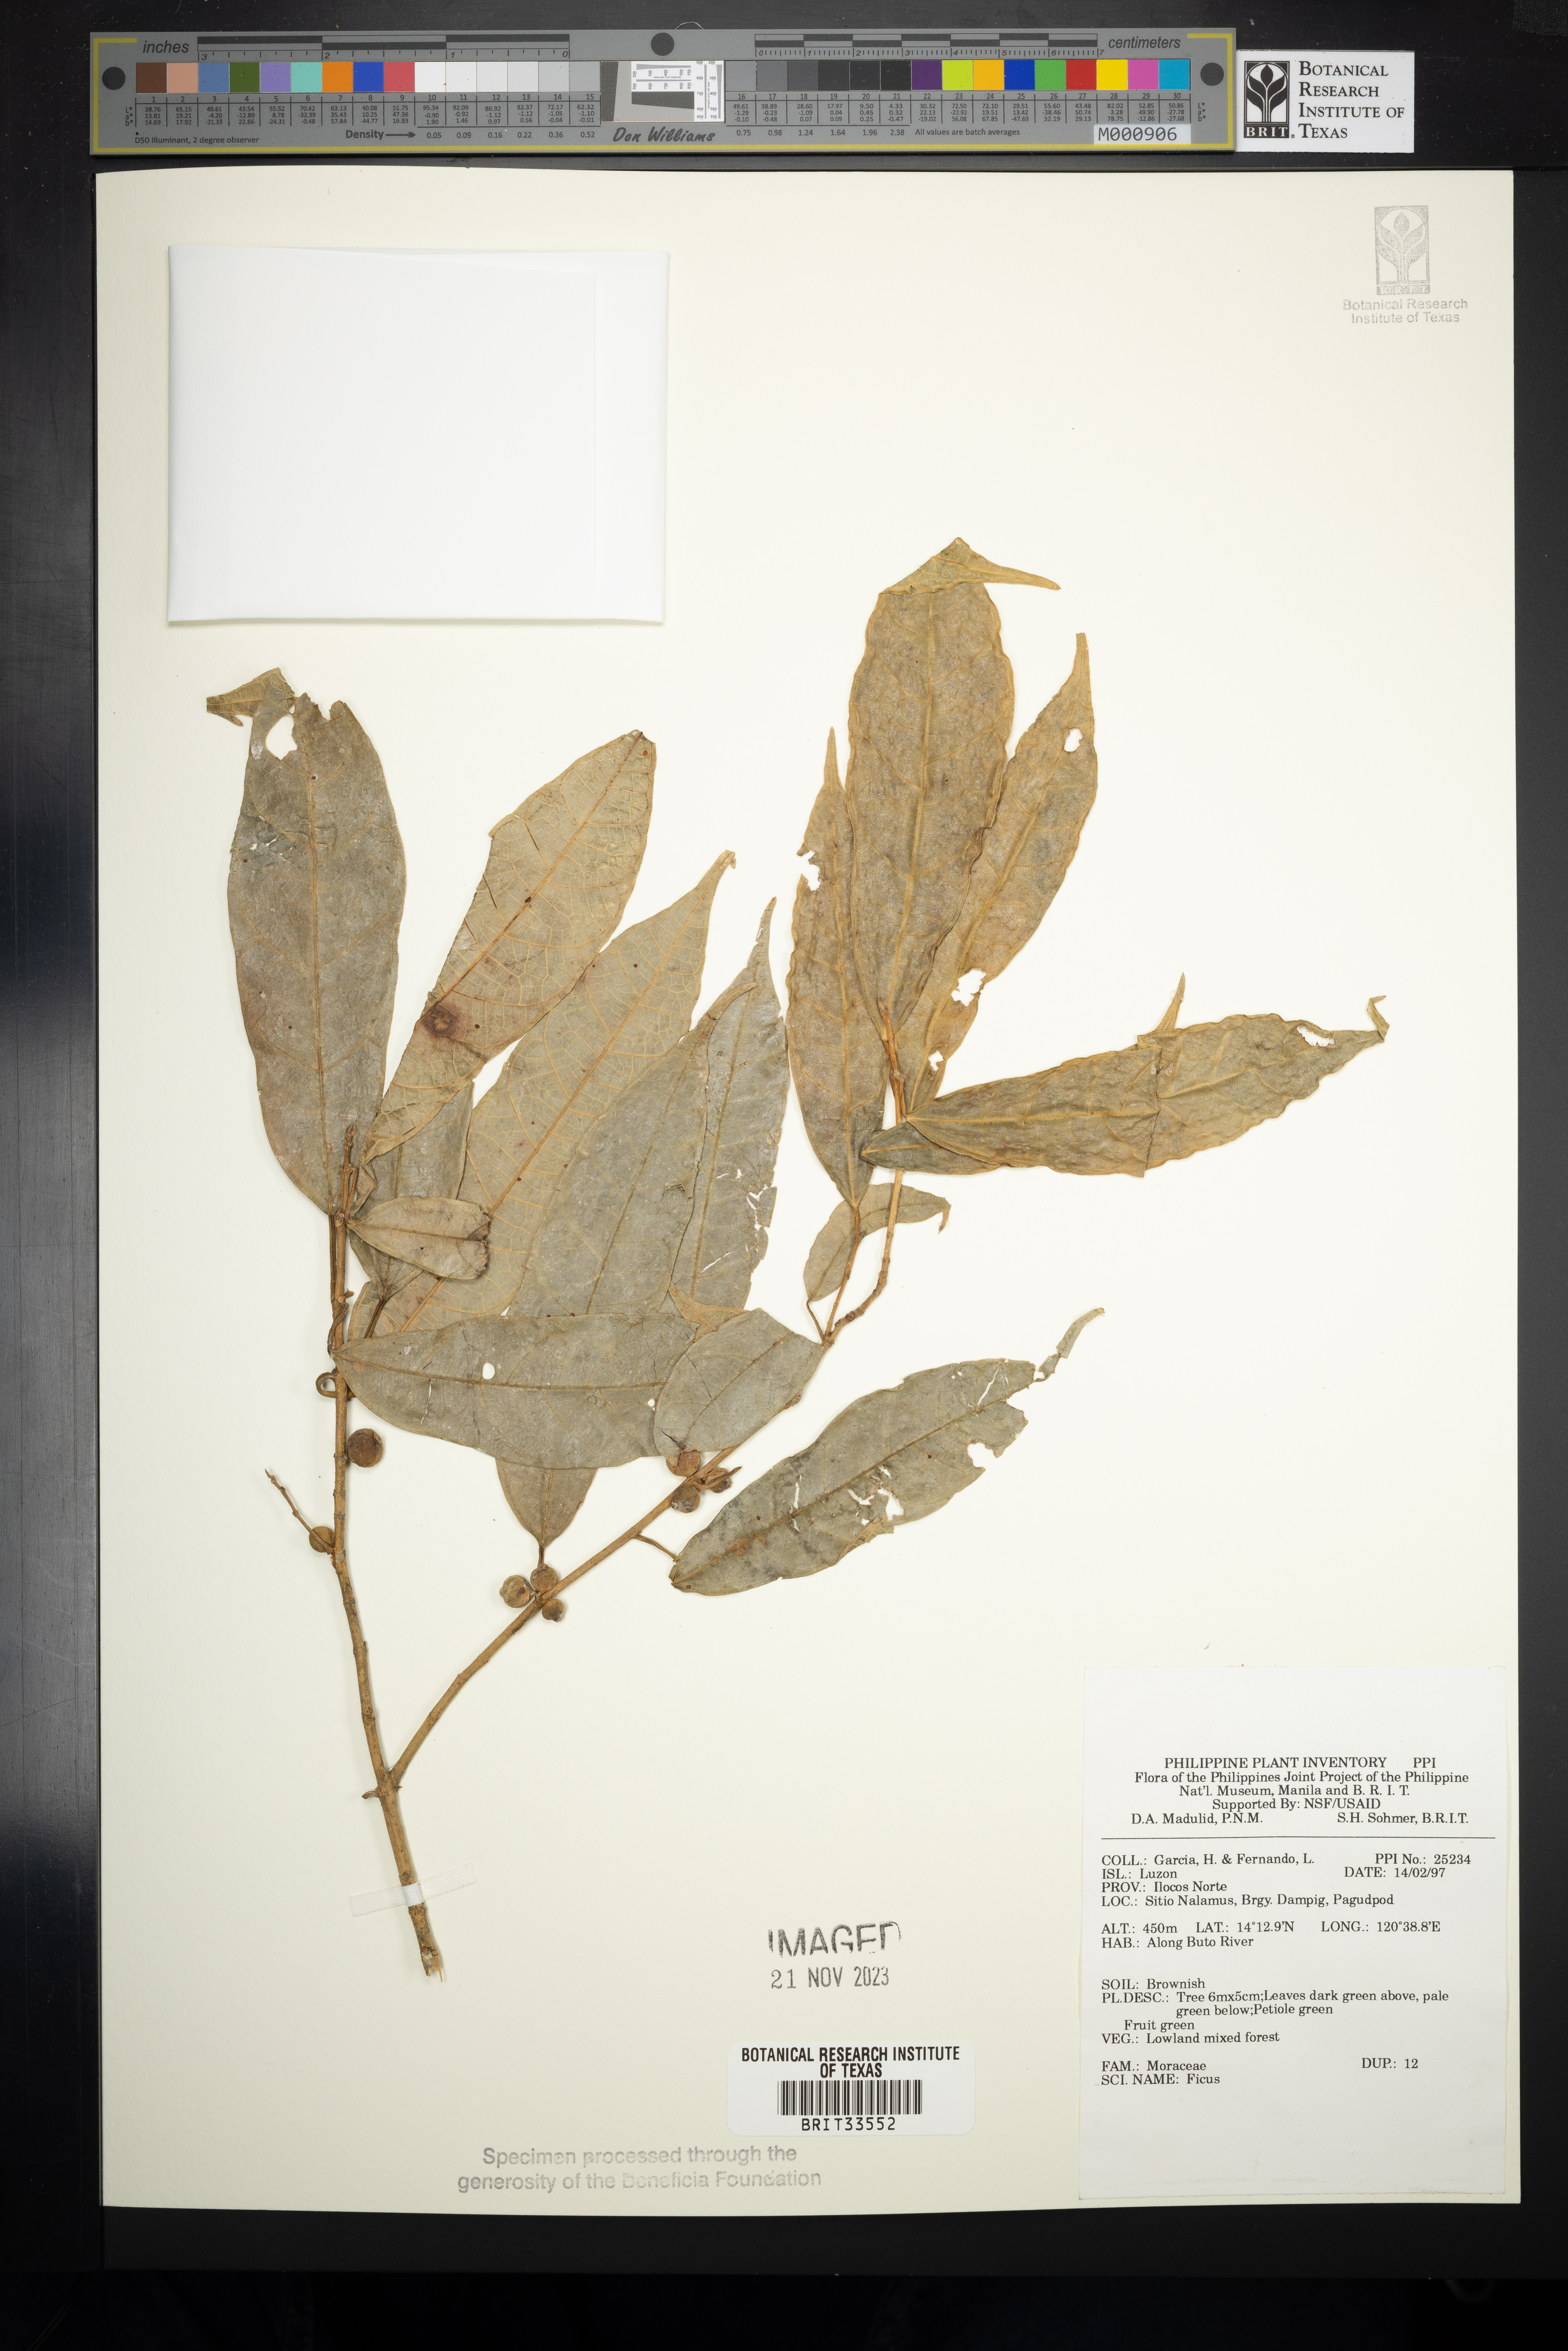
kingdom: Plantae
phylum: Tracheophyta
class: Magnoliopsida
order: Rosales
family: Moraceae
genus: Ficus
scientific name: Ficus
